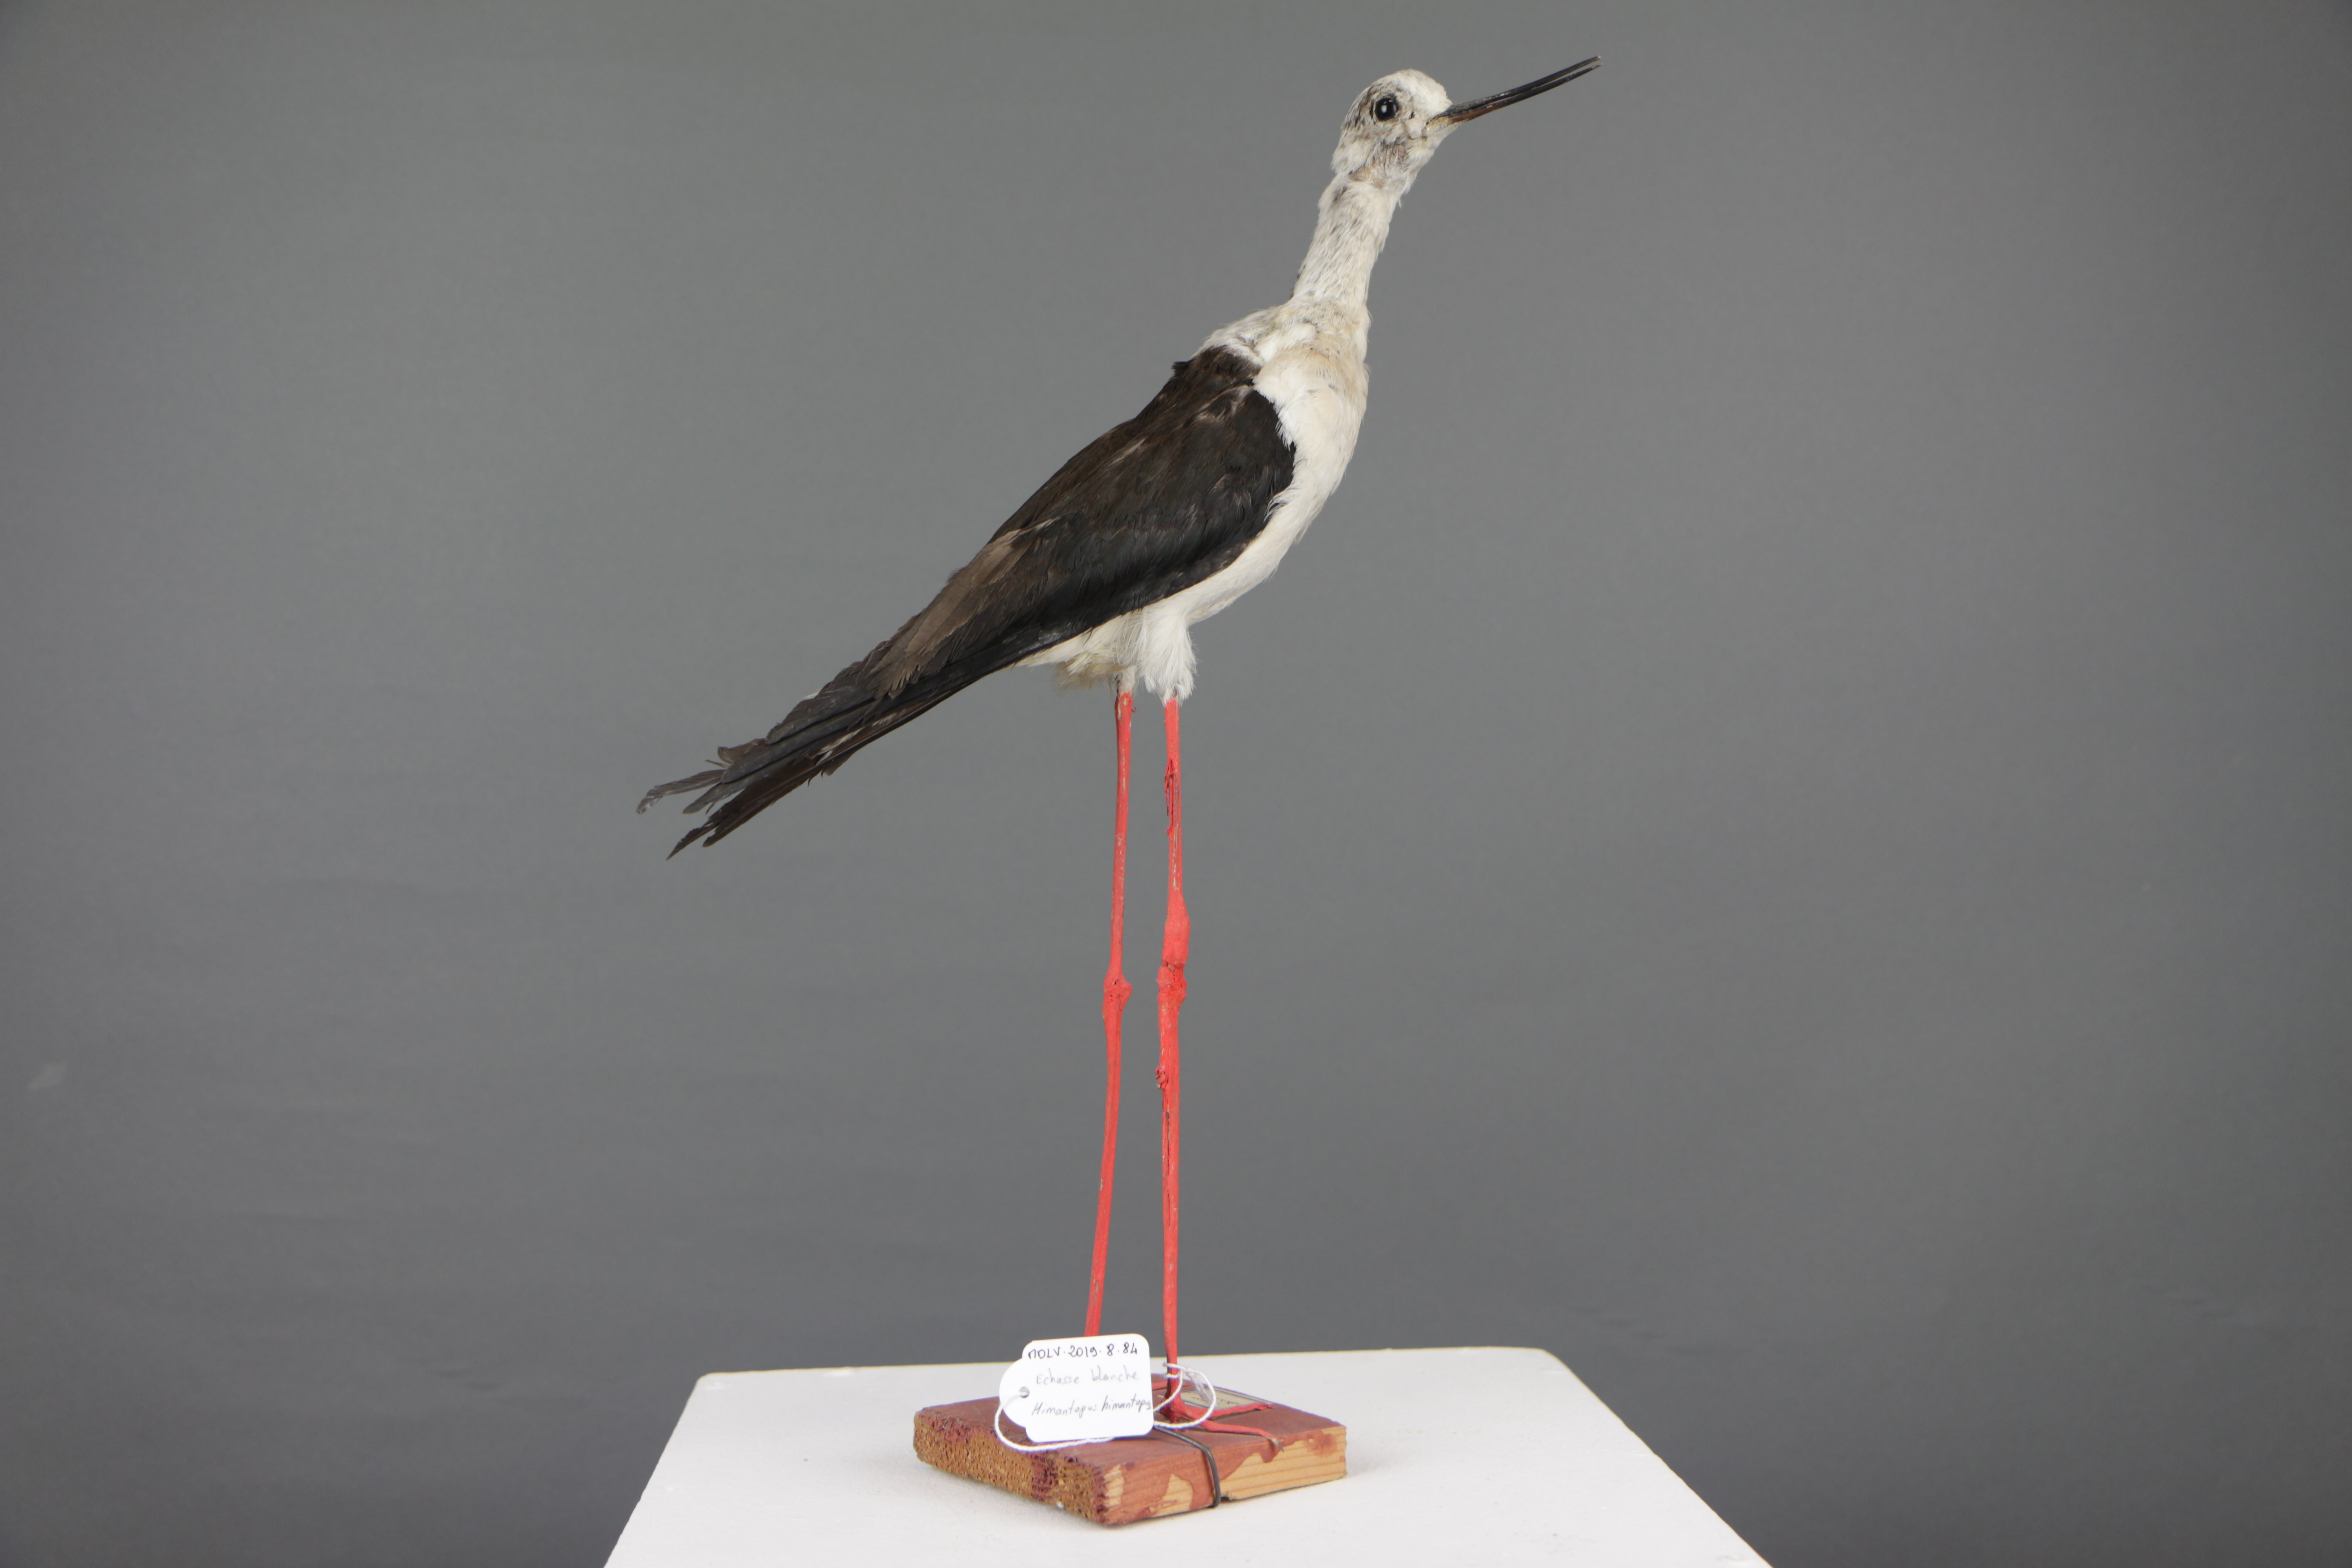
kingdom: Animalia
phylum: Chordata
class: Aves
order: Charadriiformes
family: Recurvirostridae
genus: Himantopus
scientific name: Himantopus himantopus
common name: Black-winged stilt
